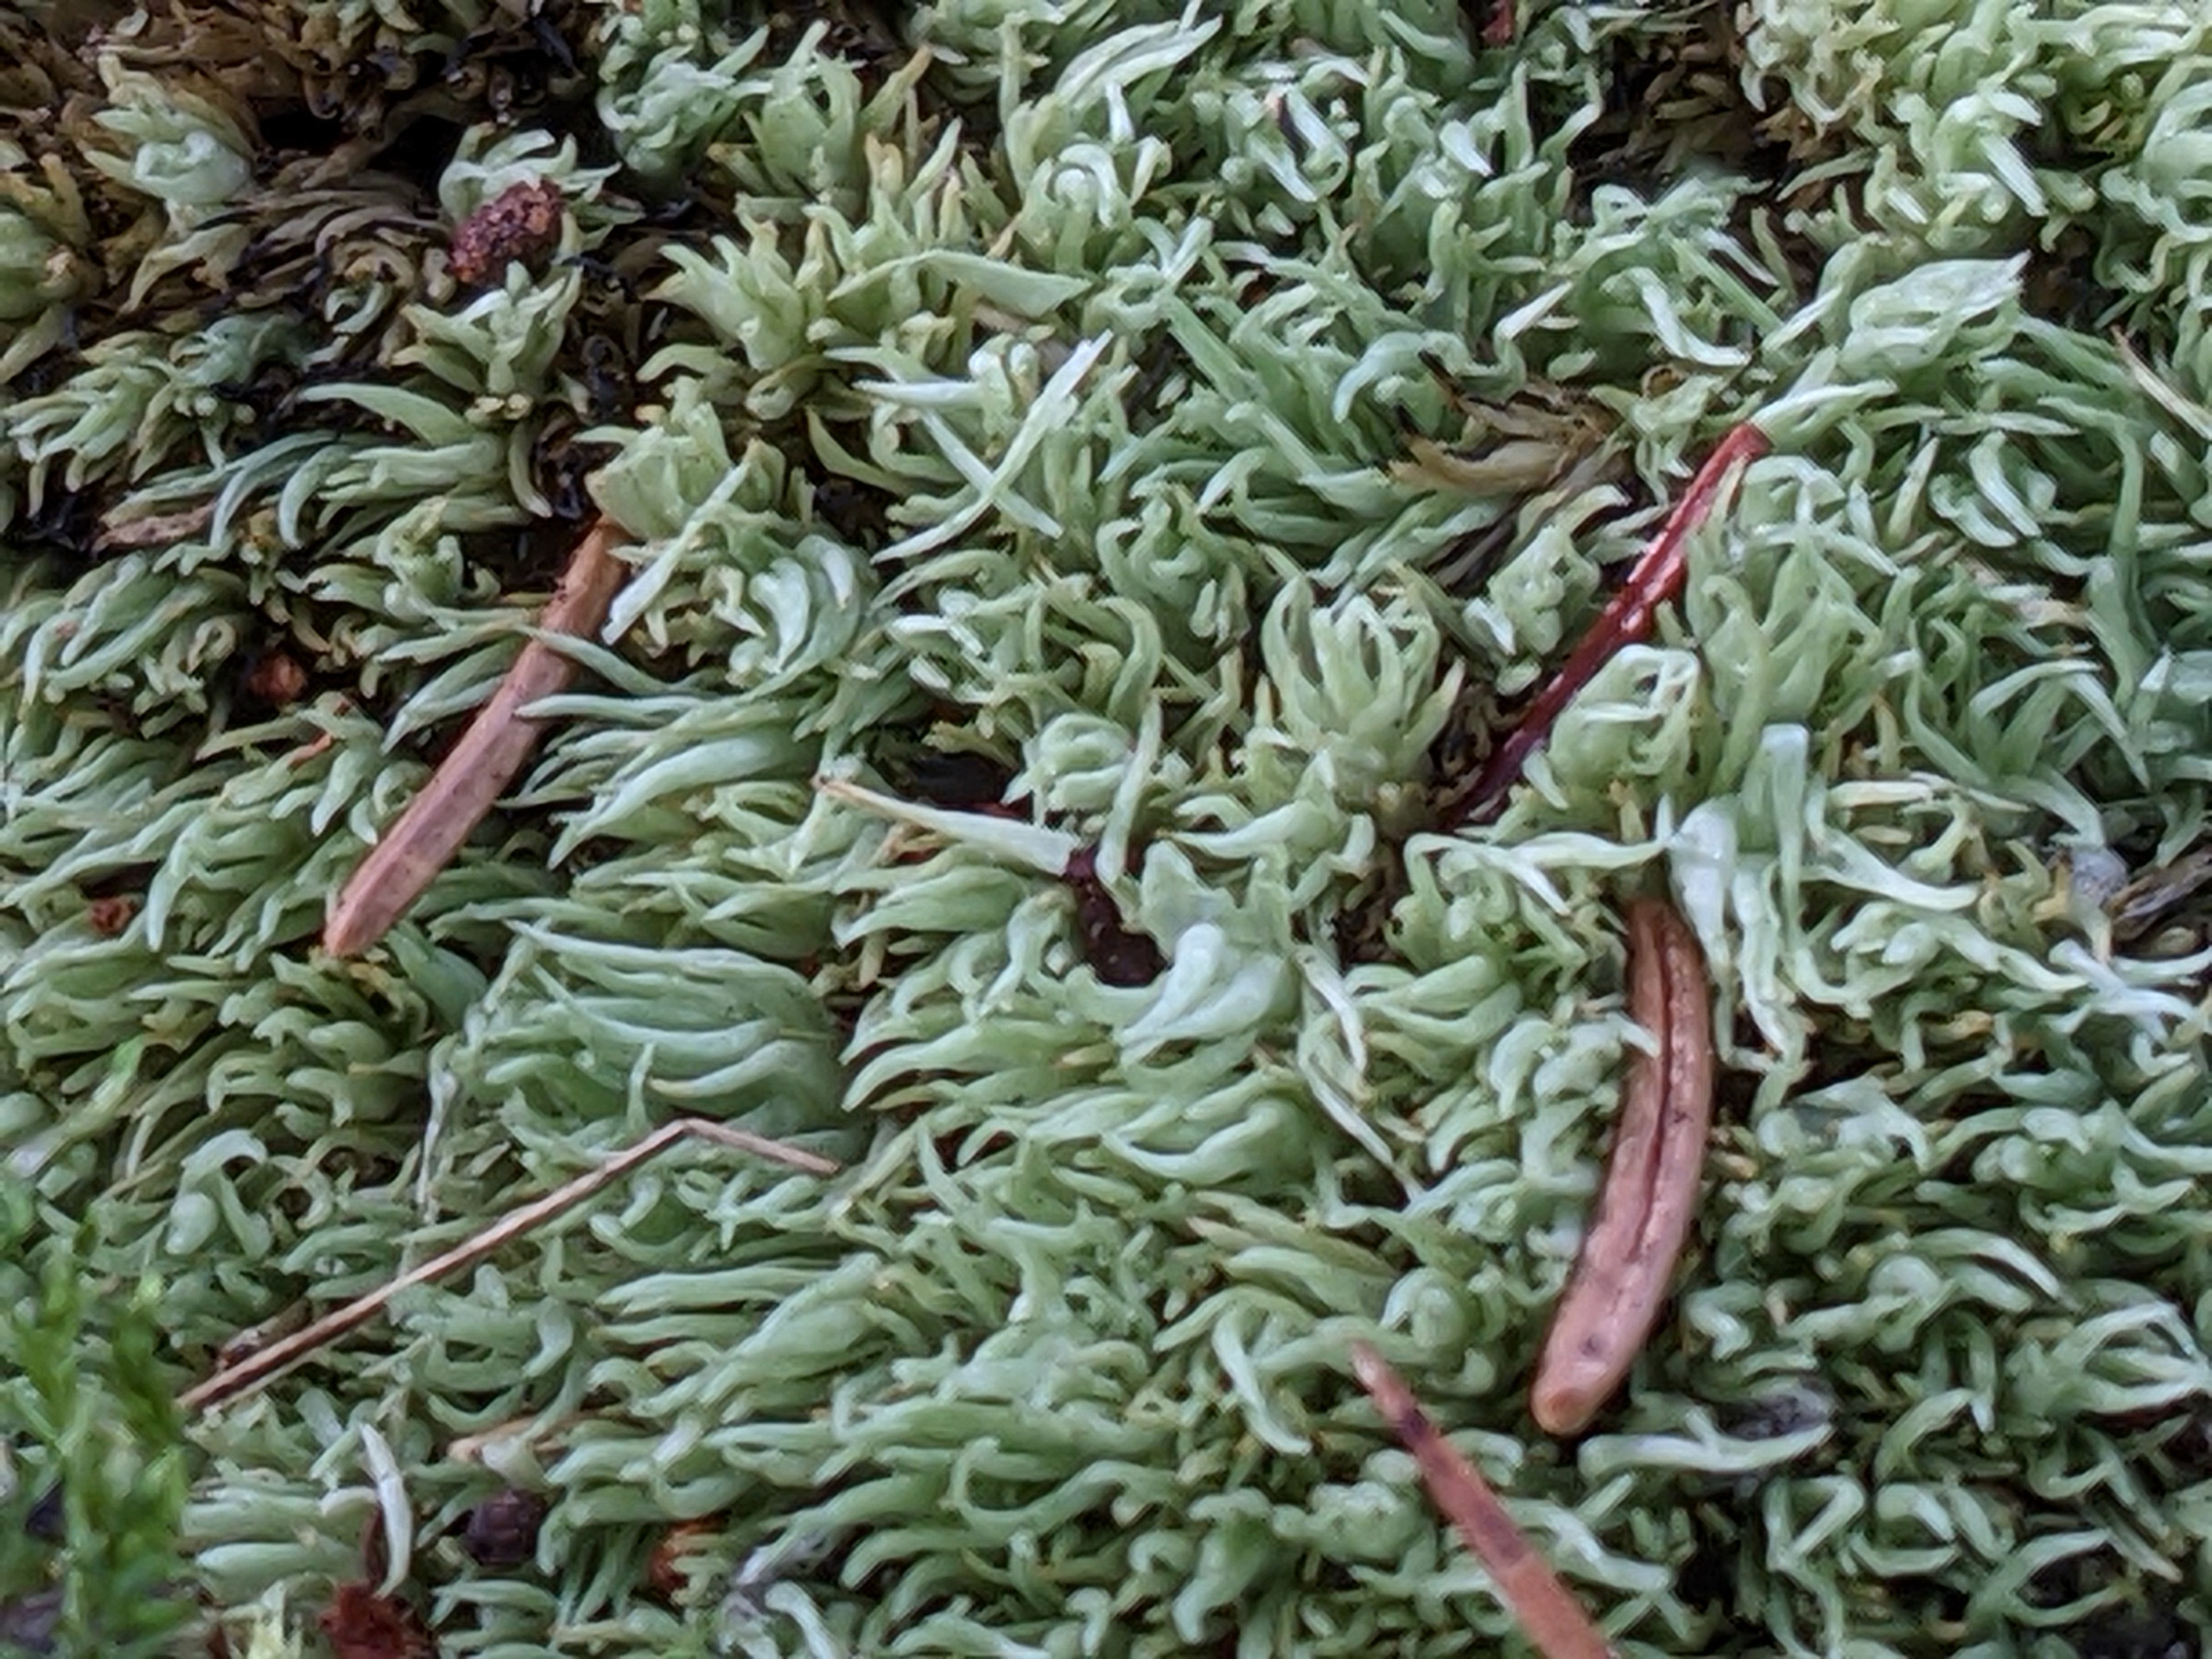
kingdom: Plantae
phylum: Bryophyta
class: Bryopsida
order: Dicranales
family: Leucobryaceae
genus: Leucobryum
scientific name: Leucobryum glaucum
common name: Almindelig hvidmos
